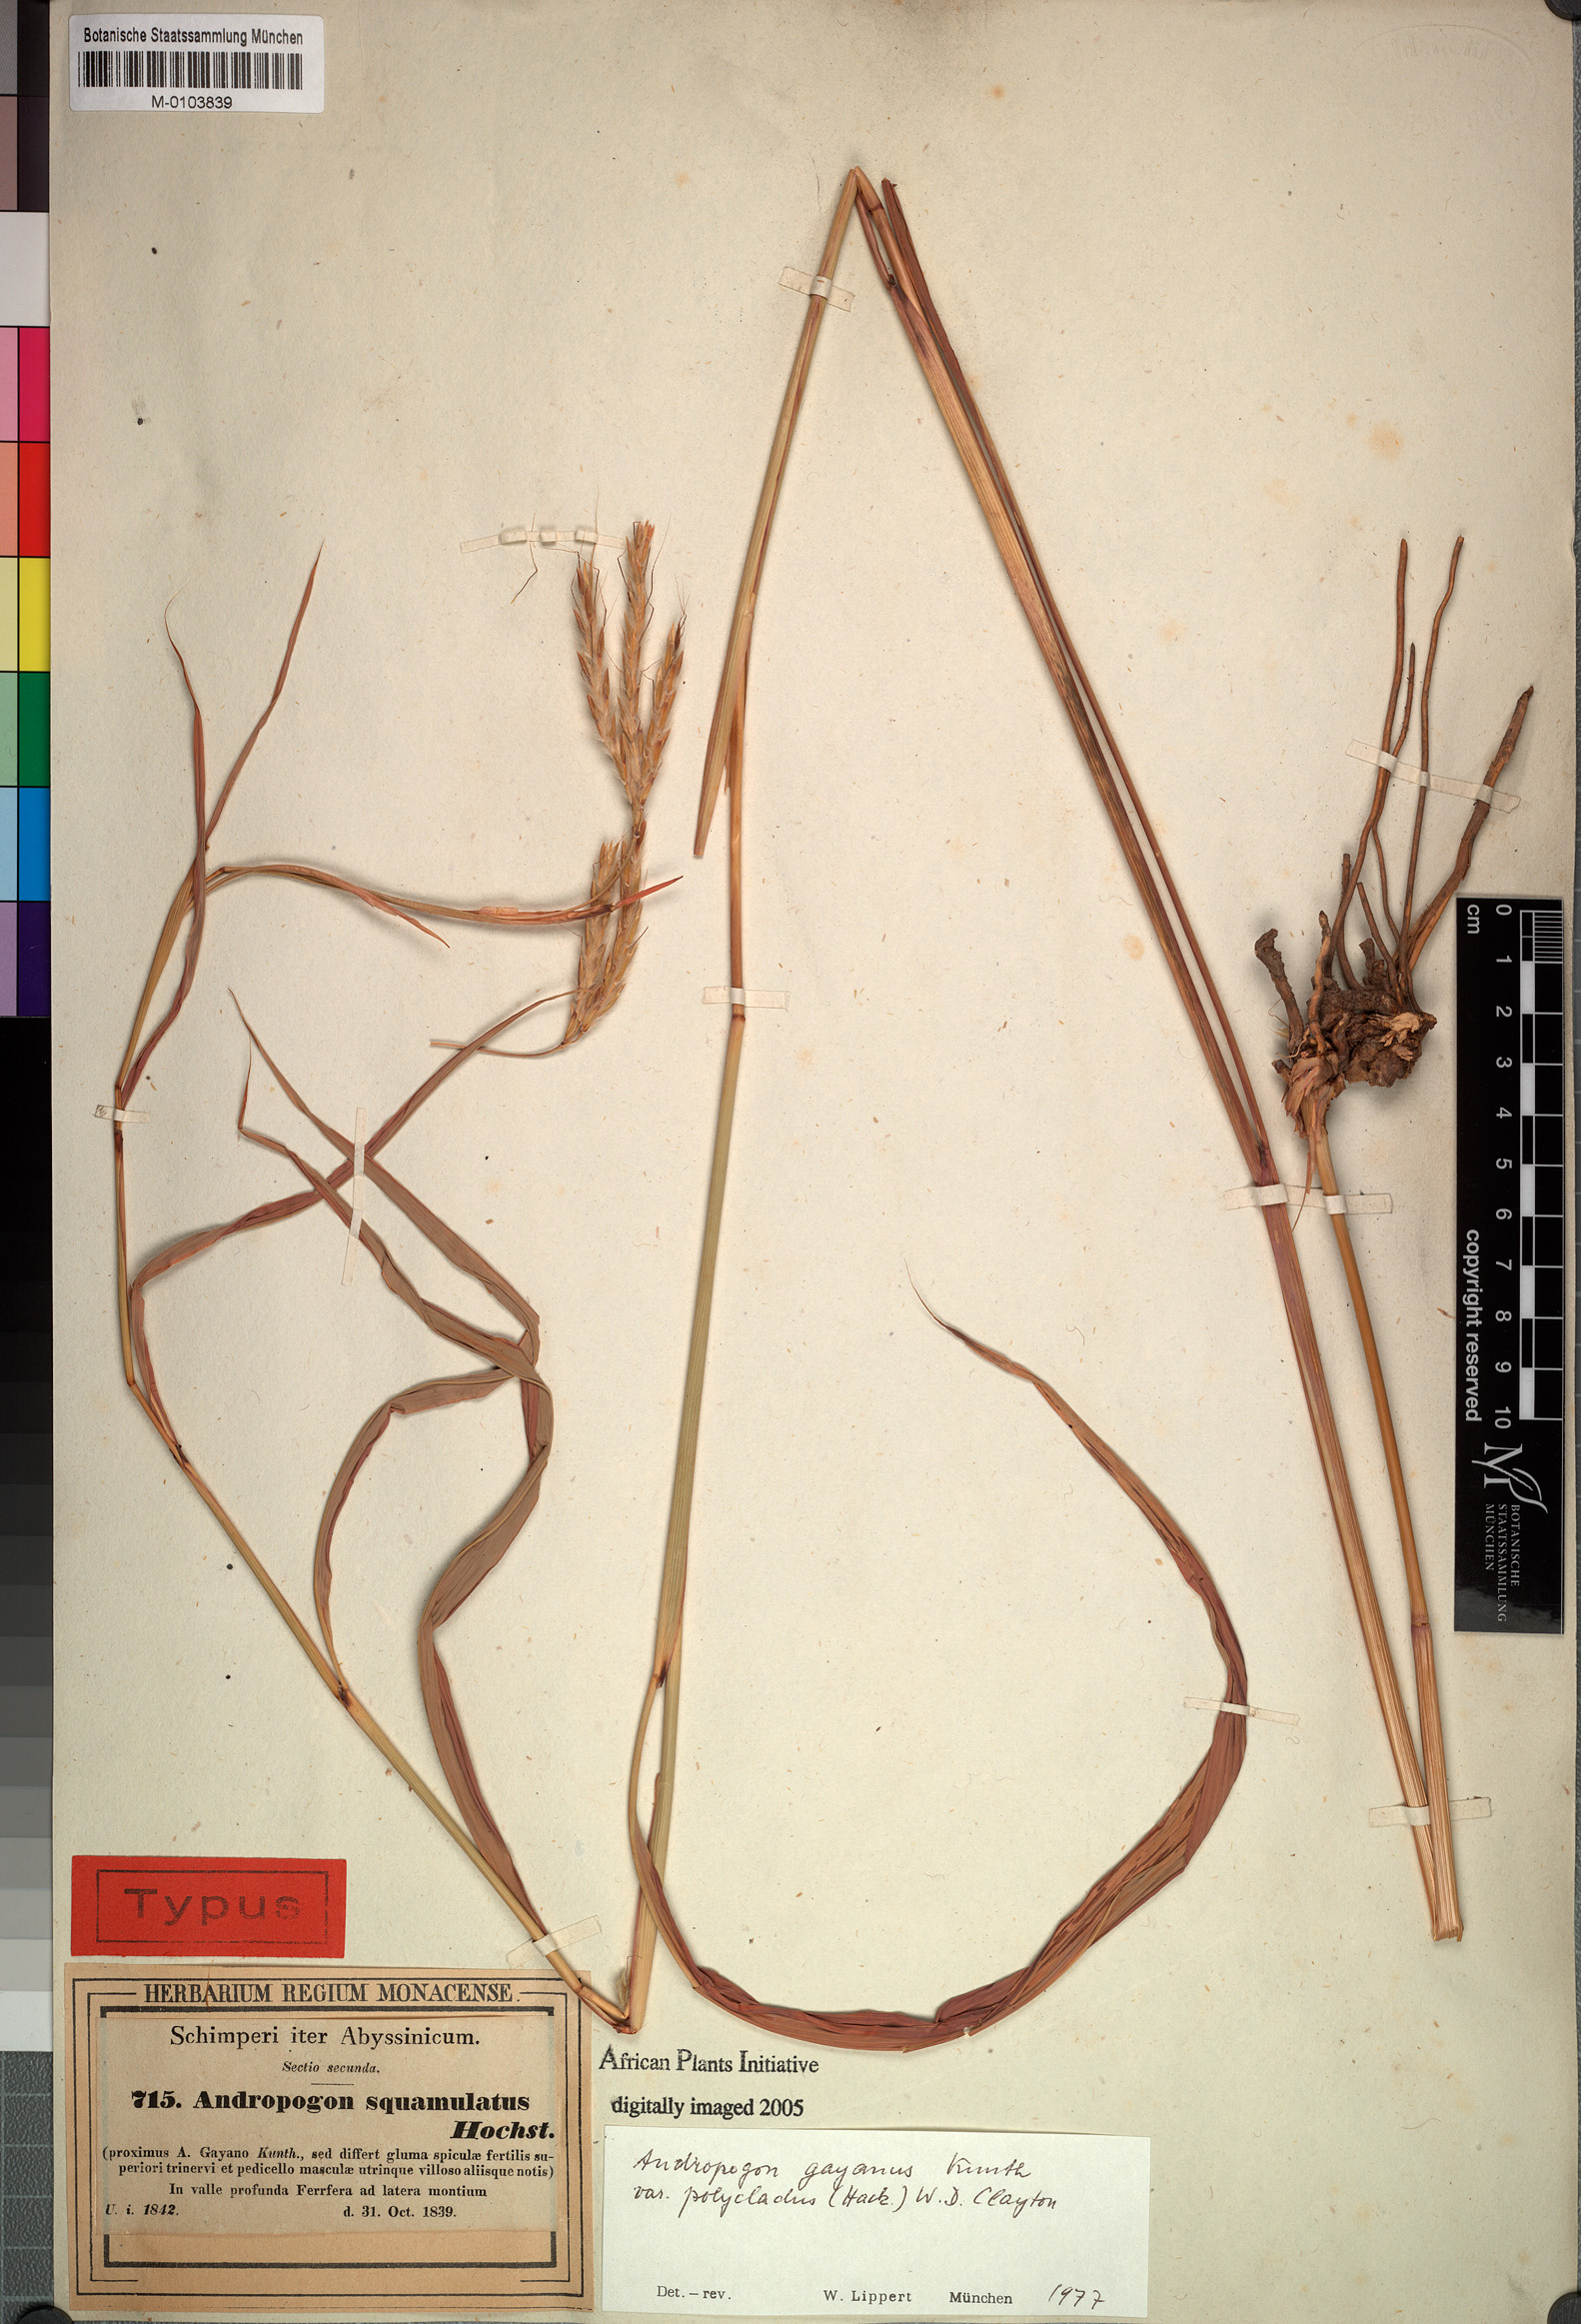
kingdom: Plantae
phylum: Tracheophyta
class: Liliopsida
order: Poales
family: Poaceae
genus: Andropogon
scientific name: Andropogon gayanus
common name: Tambuki grass
